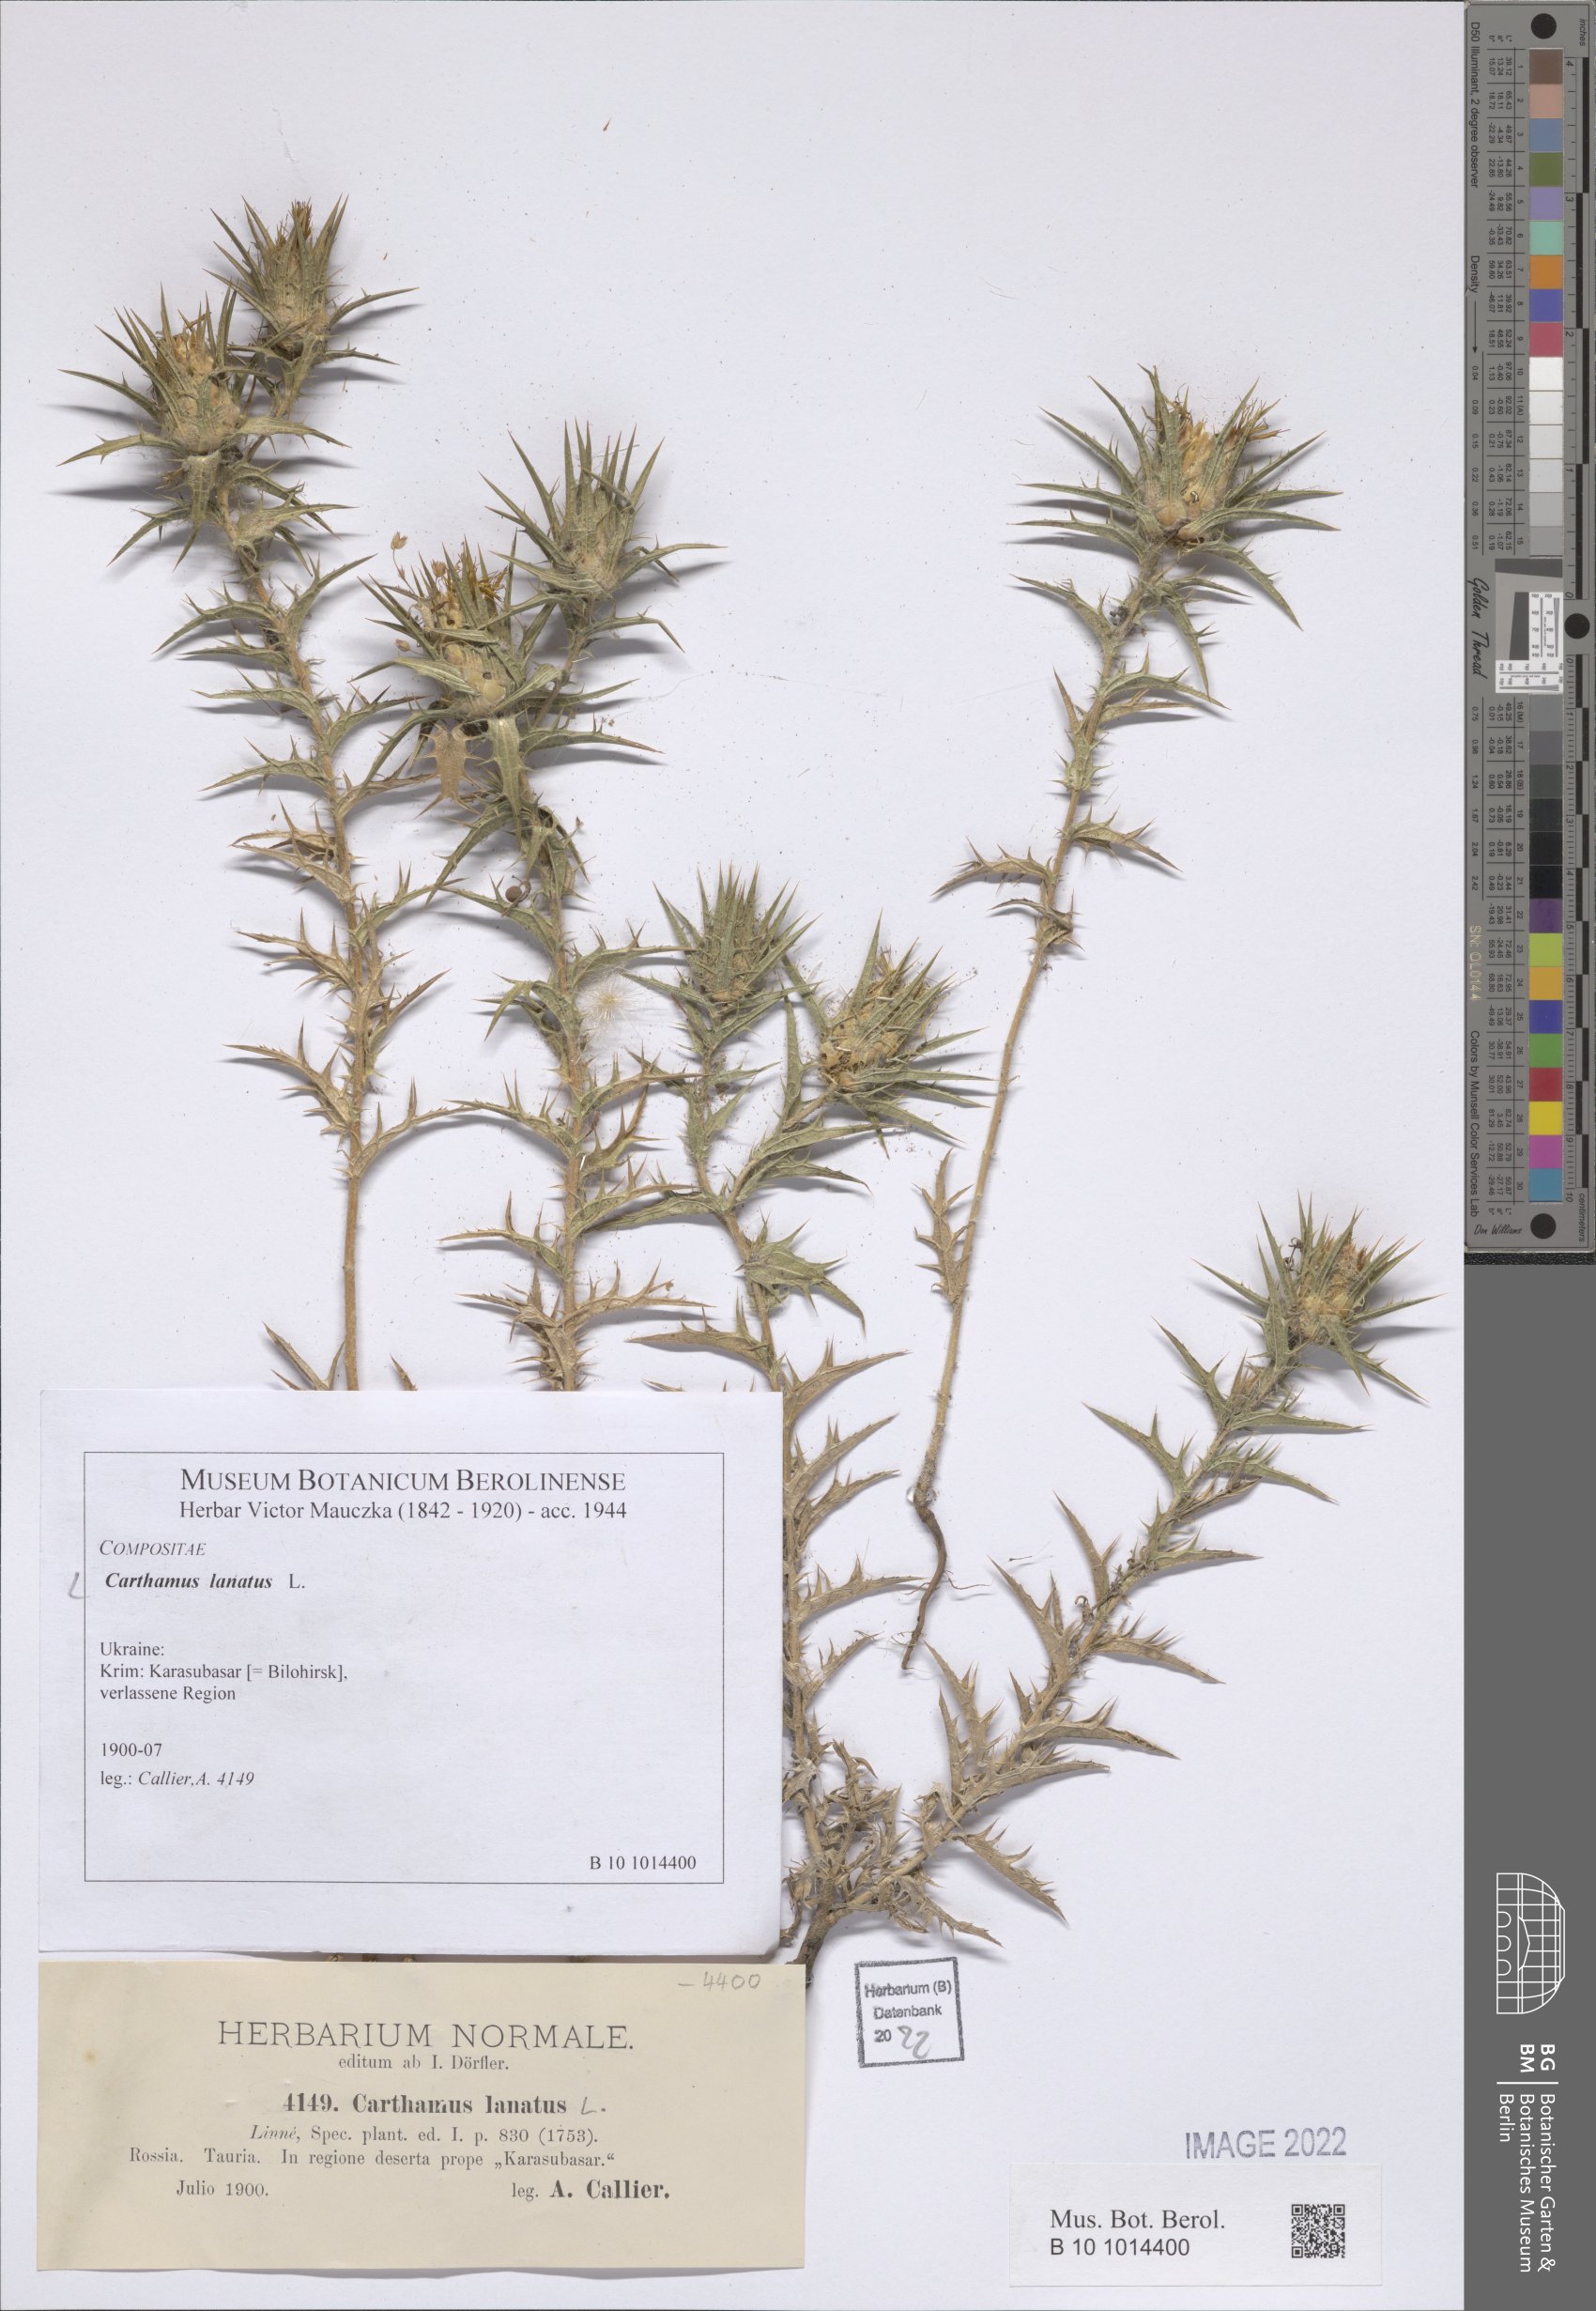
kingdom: Plantae
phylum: Tracheophyta
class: Magnoliopsida
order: Asterales
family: Asteraceae
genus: Carthamus
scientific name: Carthamus lanatus
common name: Downy safflower
